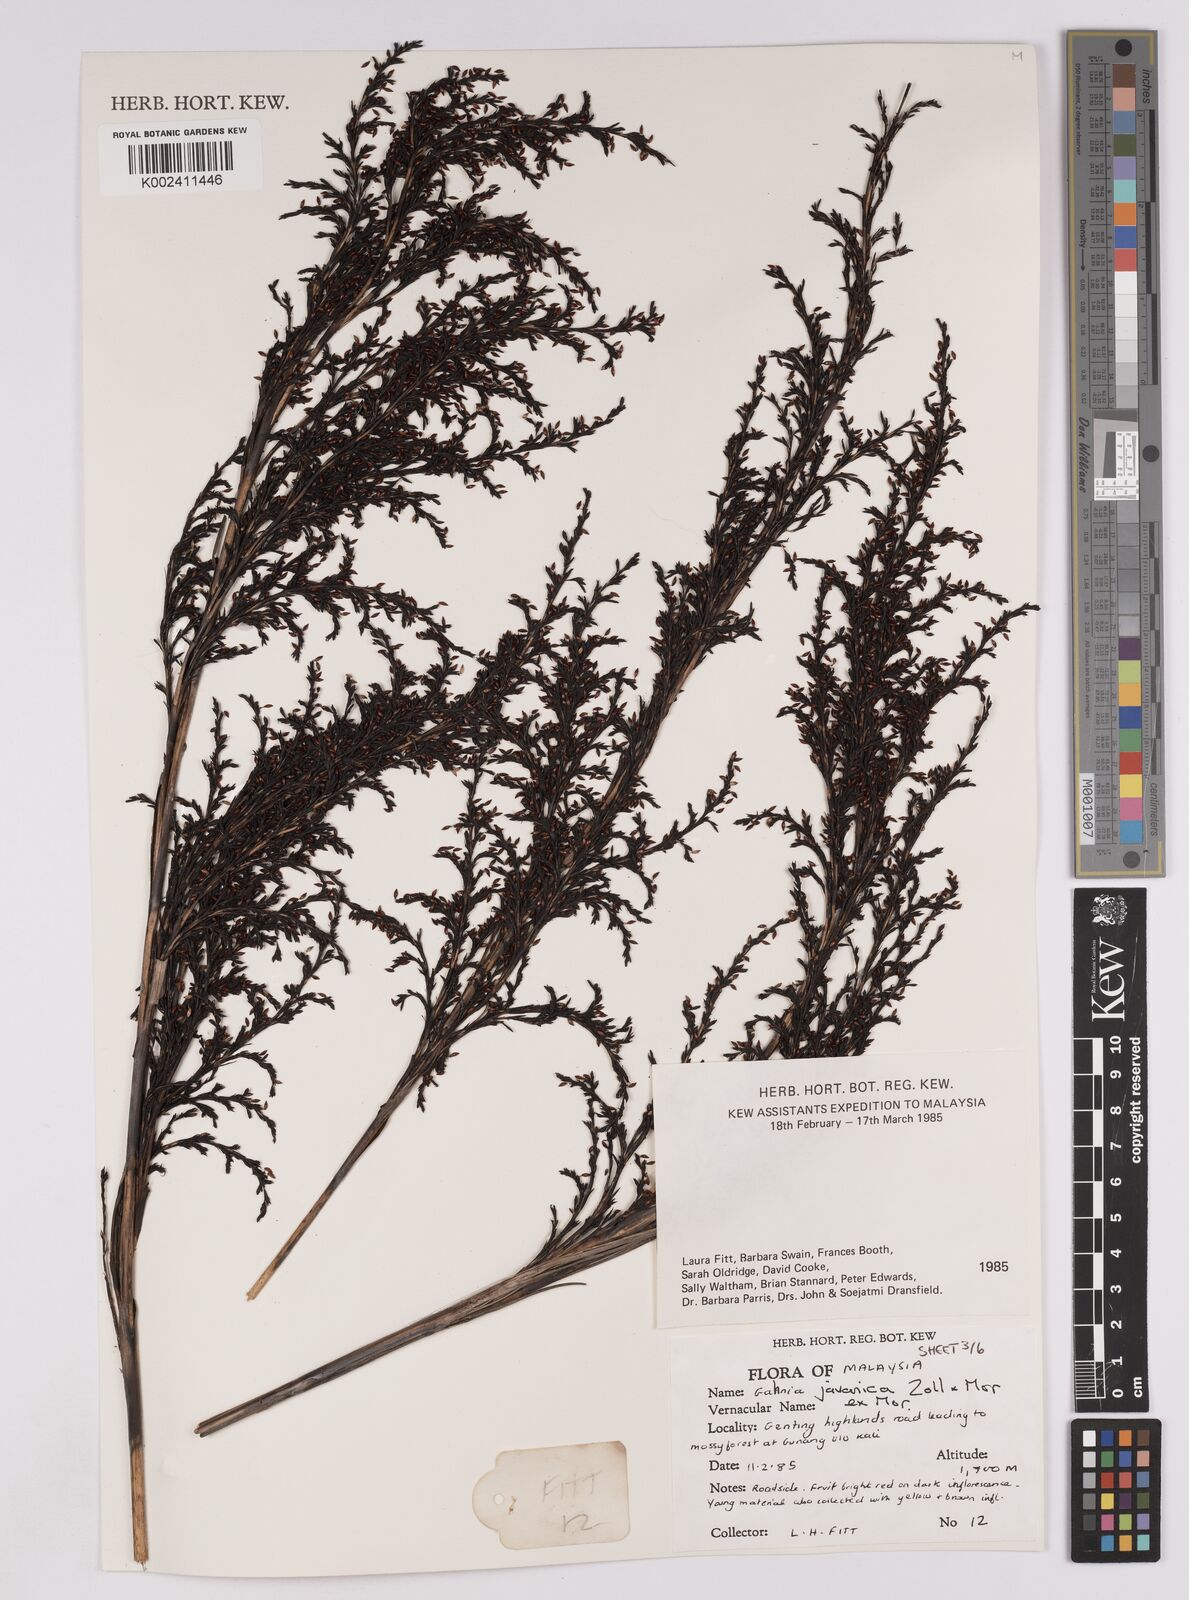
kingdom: Plantae
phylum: Tracheophyta
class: Liliopsida
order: Poales
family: Cyperaceae
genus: Gahnia
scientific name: Gahnia javanica
